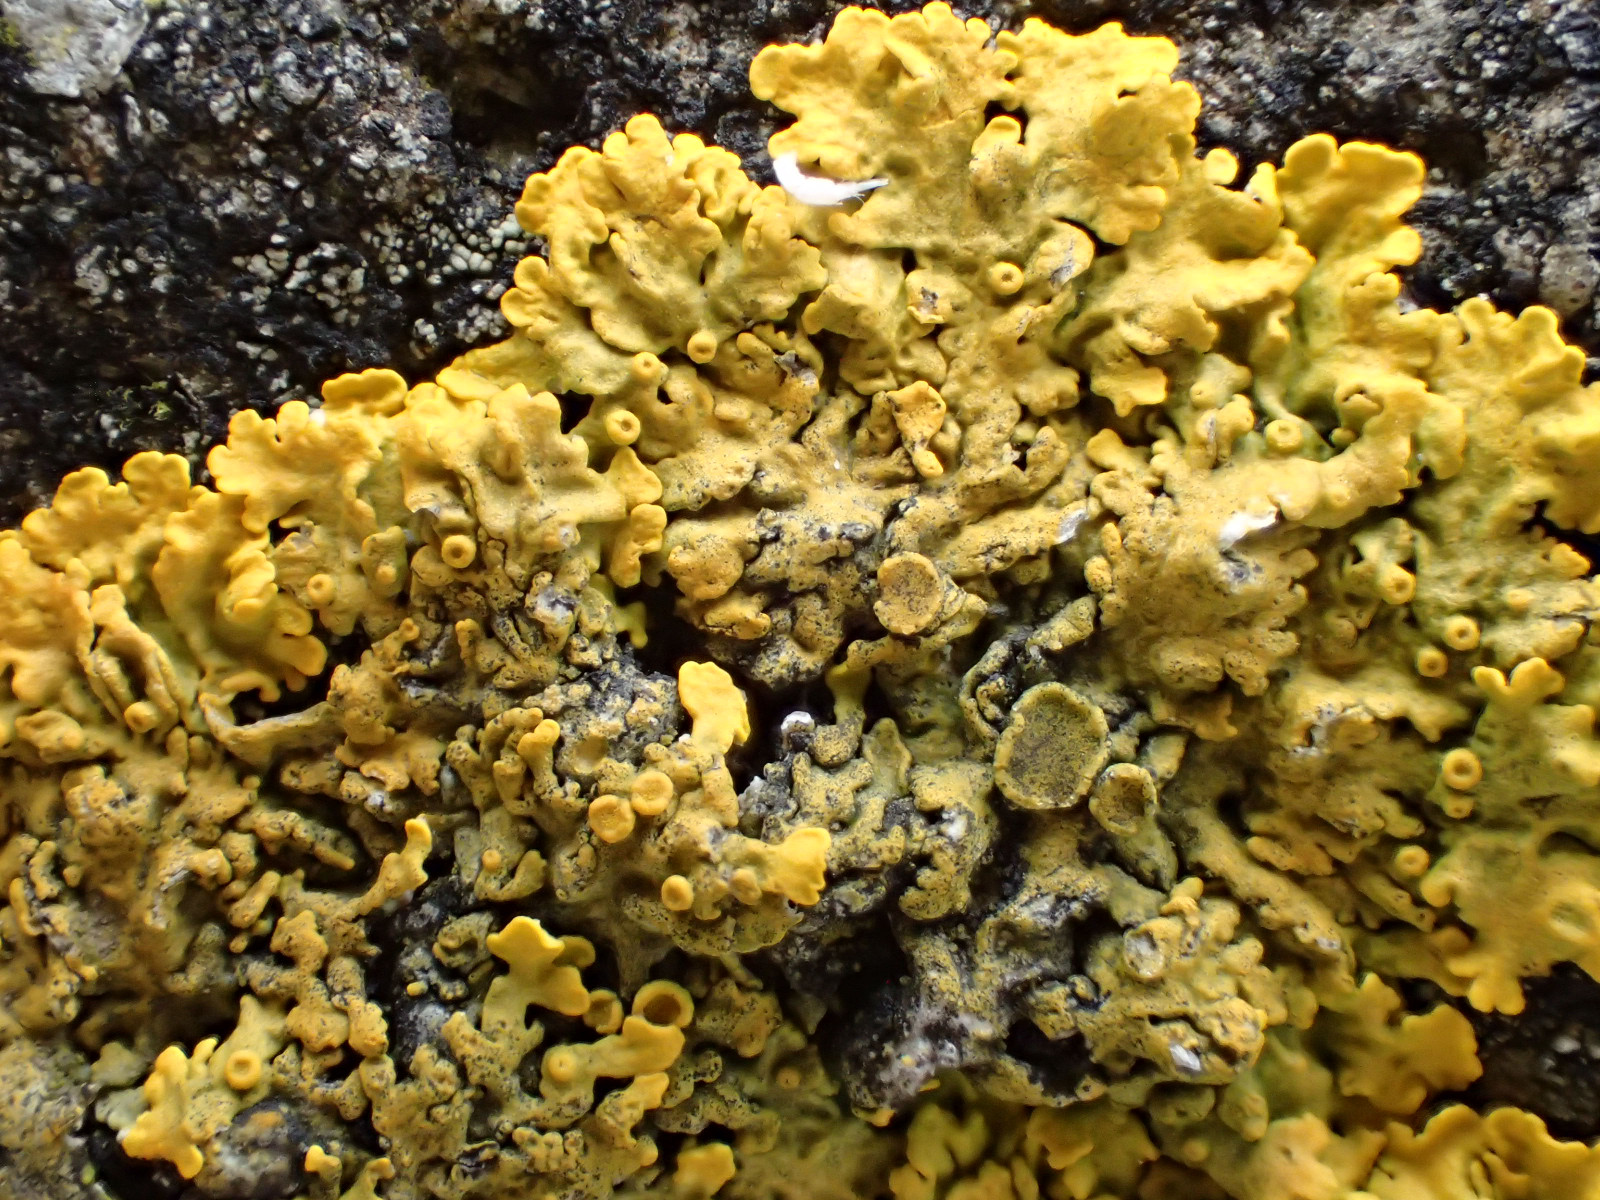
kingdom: Fungi
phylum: Ascomycota
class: Lecanoromycetes
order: Teloschistales
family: Teloschistaceae
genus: Xanthoria
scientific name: Xanthoria parietina
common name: almindelig væggelav
